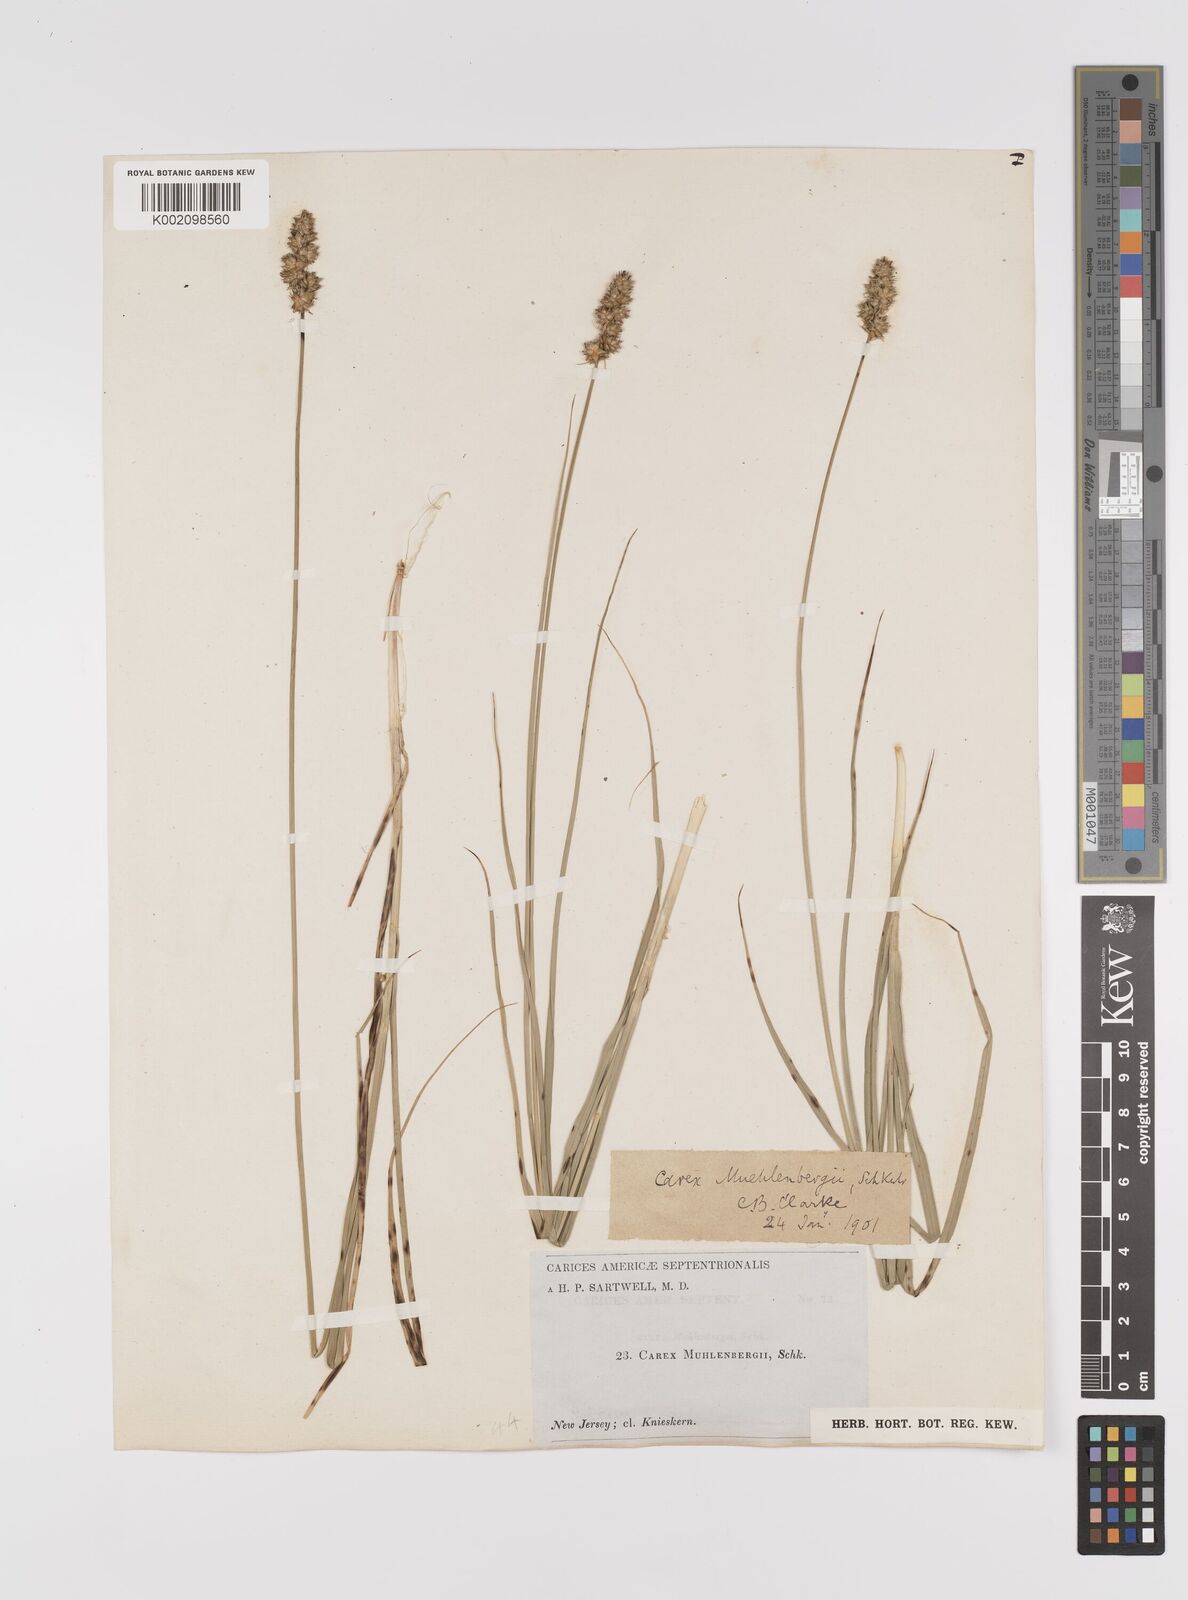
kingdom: Plantae
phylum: Tracheophyta
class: Liliopsida
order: Poales
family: Cyperaceae
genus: Carex
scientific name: Carex vulpinoidea
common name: American fox-sedge
